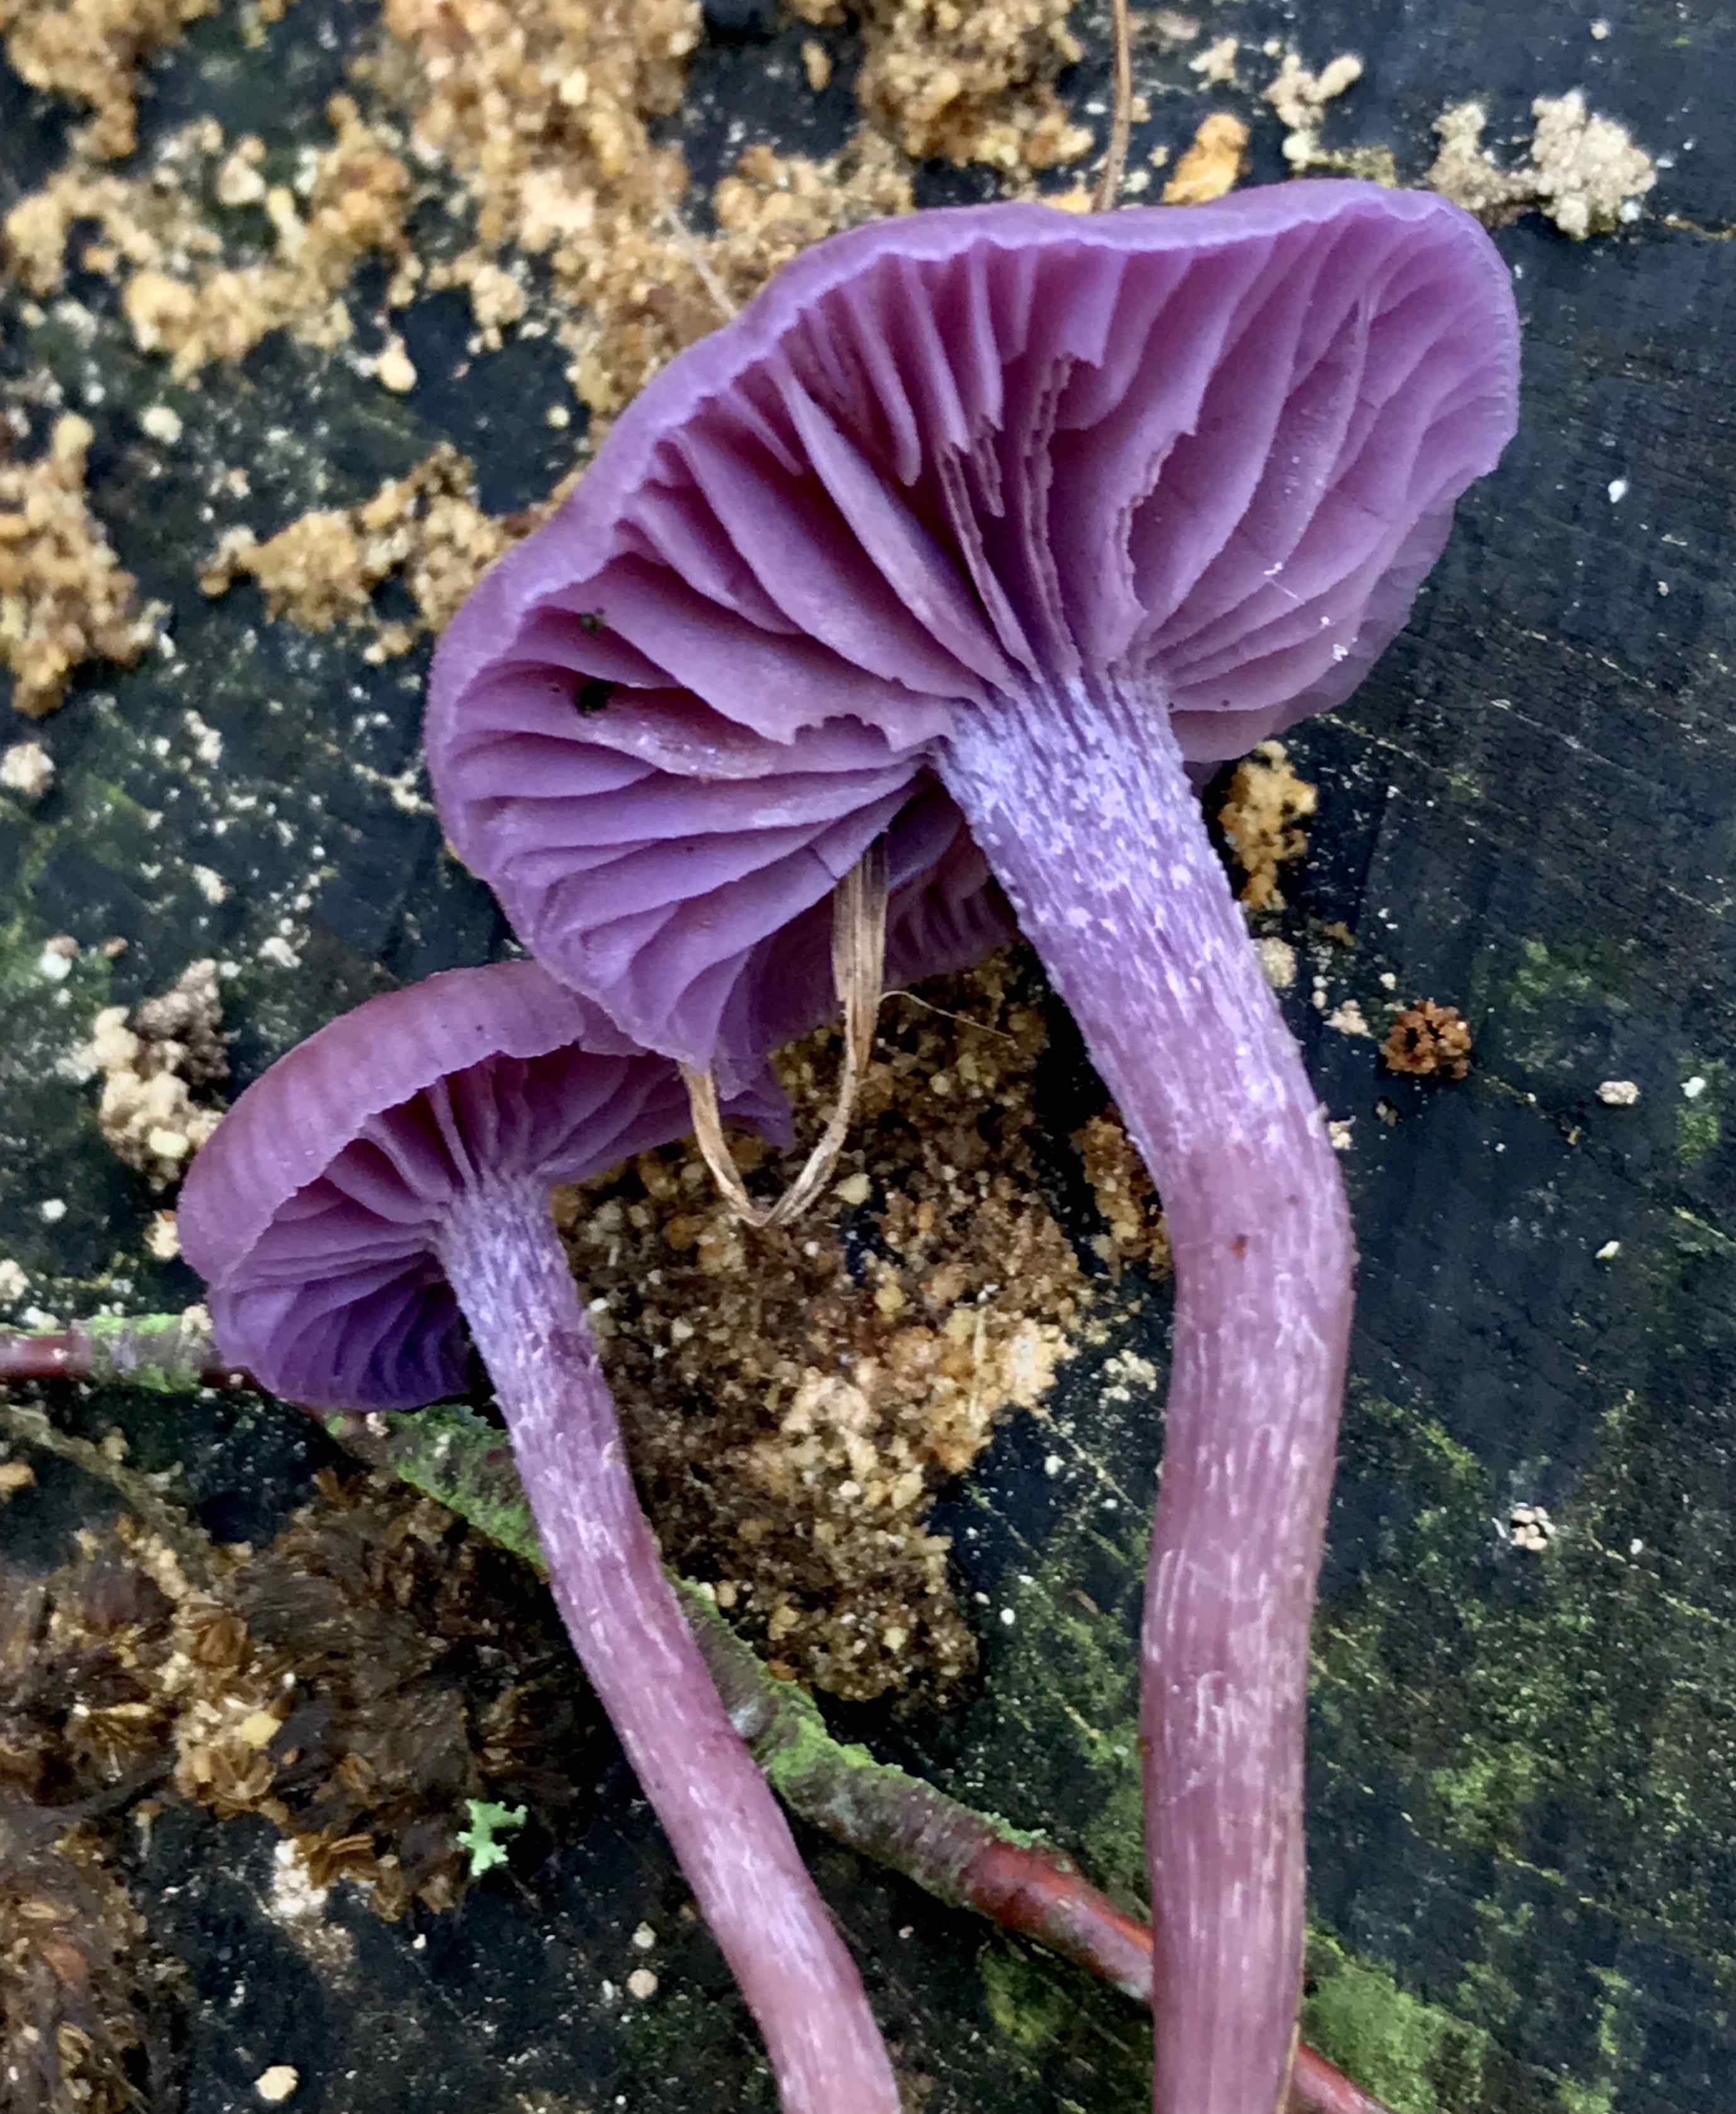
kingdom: Fungi
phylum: Basidiomycota
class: Agaricomycetes
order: Agaricales
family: Hydnangiaceae
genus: Laccaria
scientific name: Laccaria amethystina
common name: violet ametysthat
